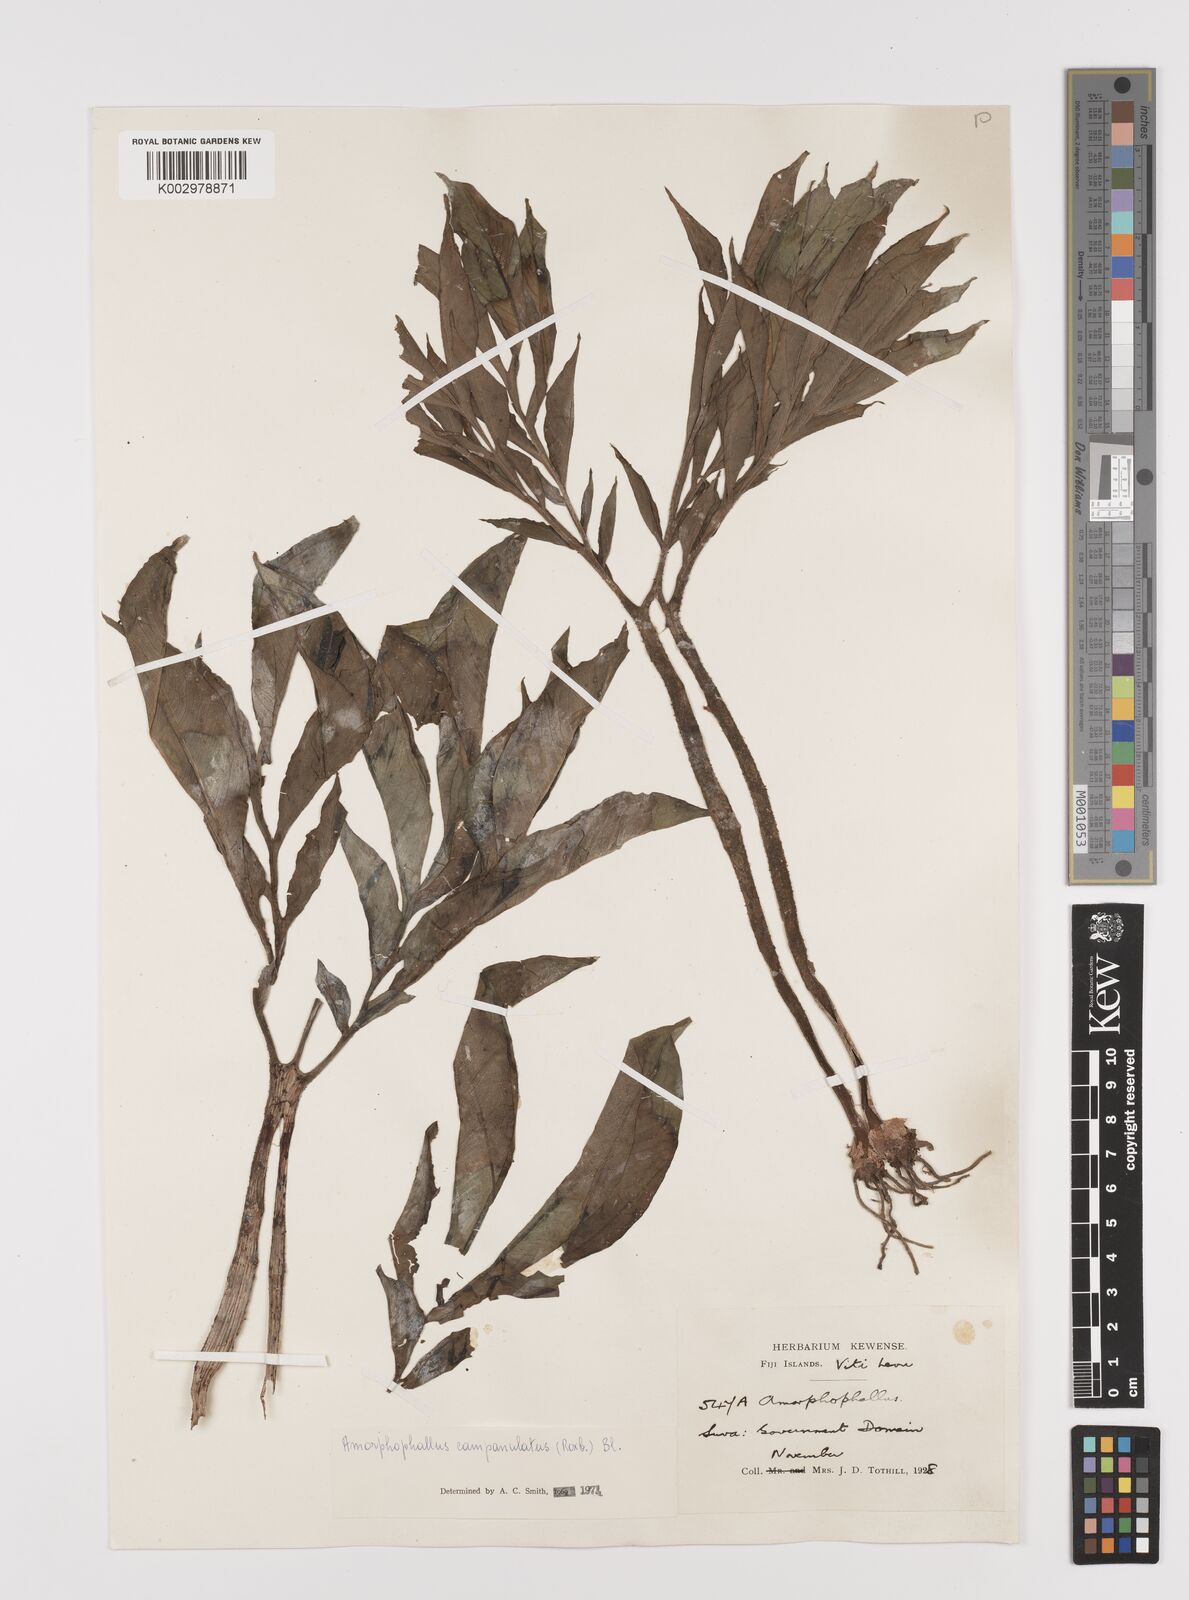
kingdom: Plantae
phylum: Tracheophyta
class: Liliopsida
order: Alismatales
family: Araceae
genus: Amorphophallus
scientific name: Amorphophallus paeoniifolius
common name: Telinga-potato
